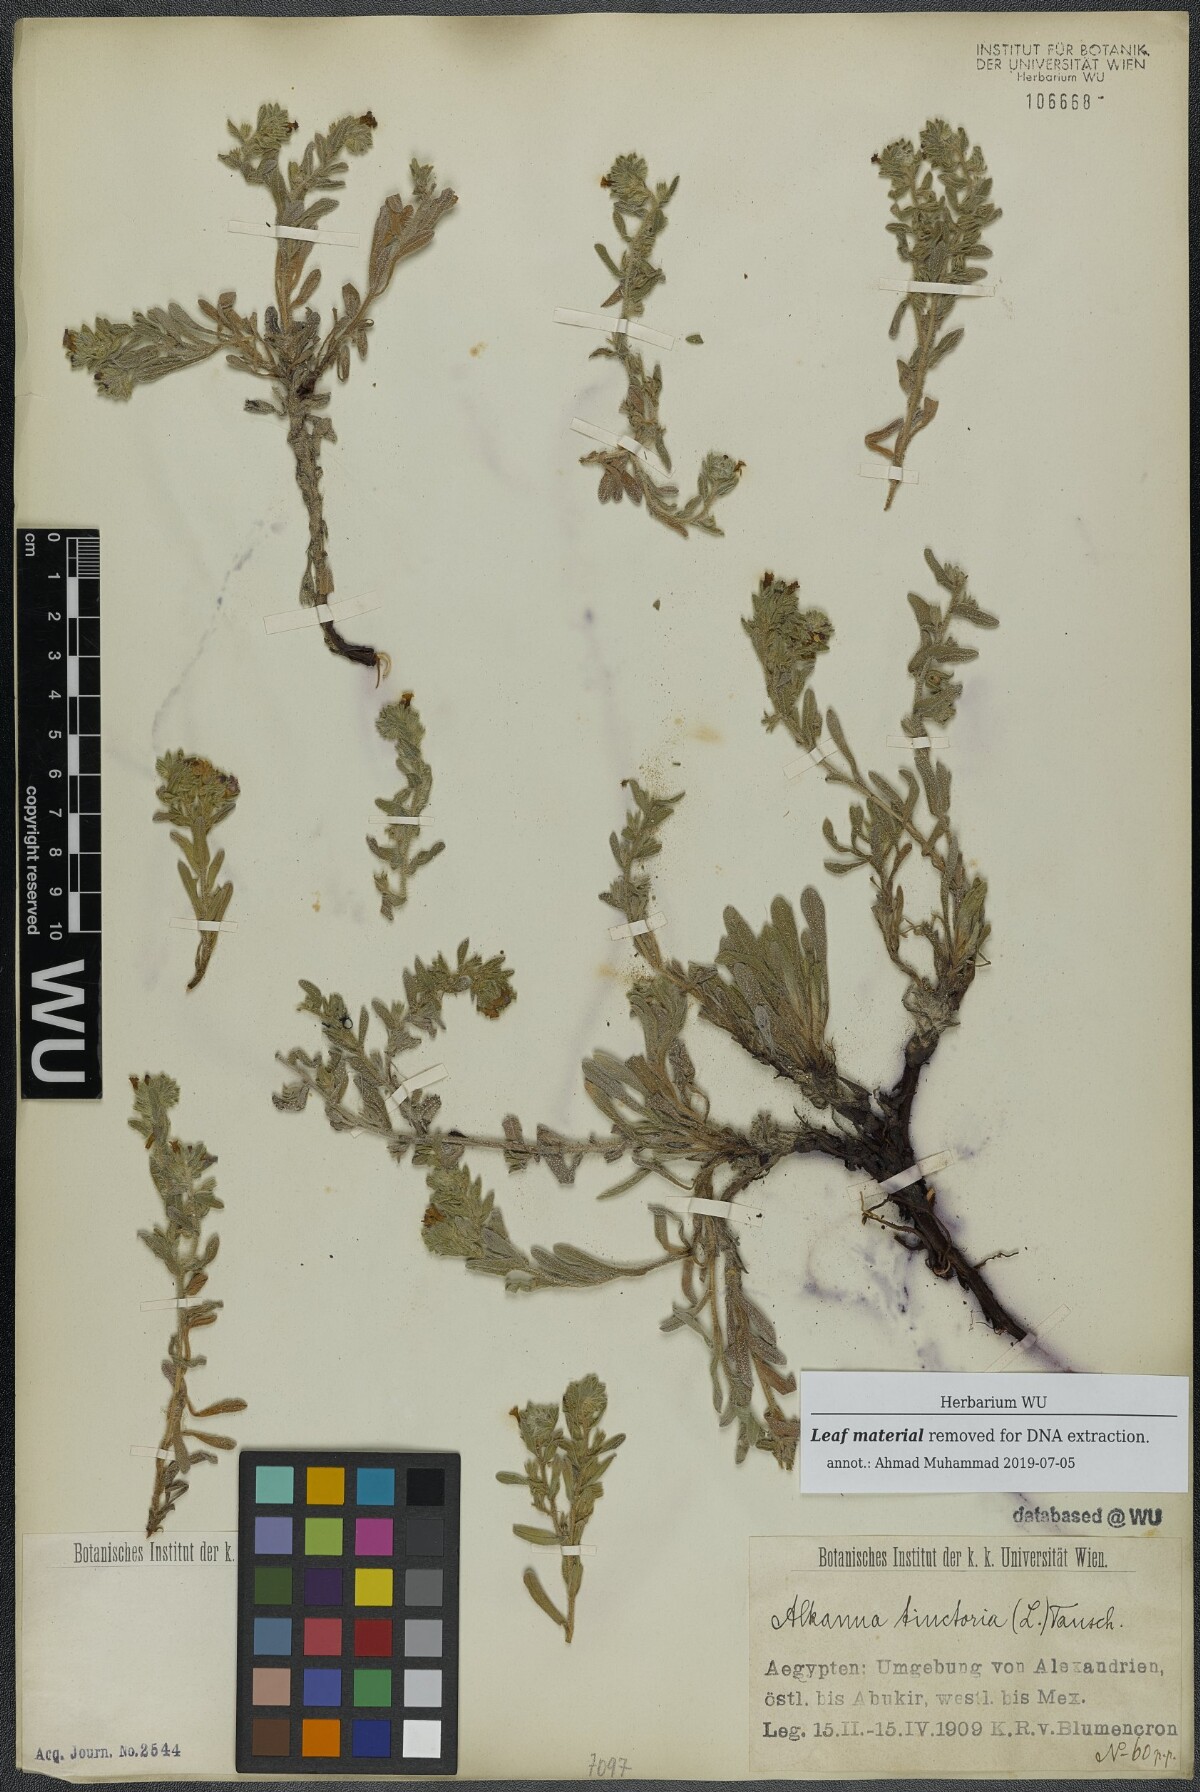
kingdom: Plantae
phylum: Tracheophyta
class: Magnoliopsida
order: Boraginales
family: Boraginaceae
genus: Alkanna
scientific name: Alkanna tinctoria
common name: Dyer's-alkanet
